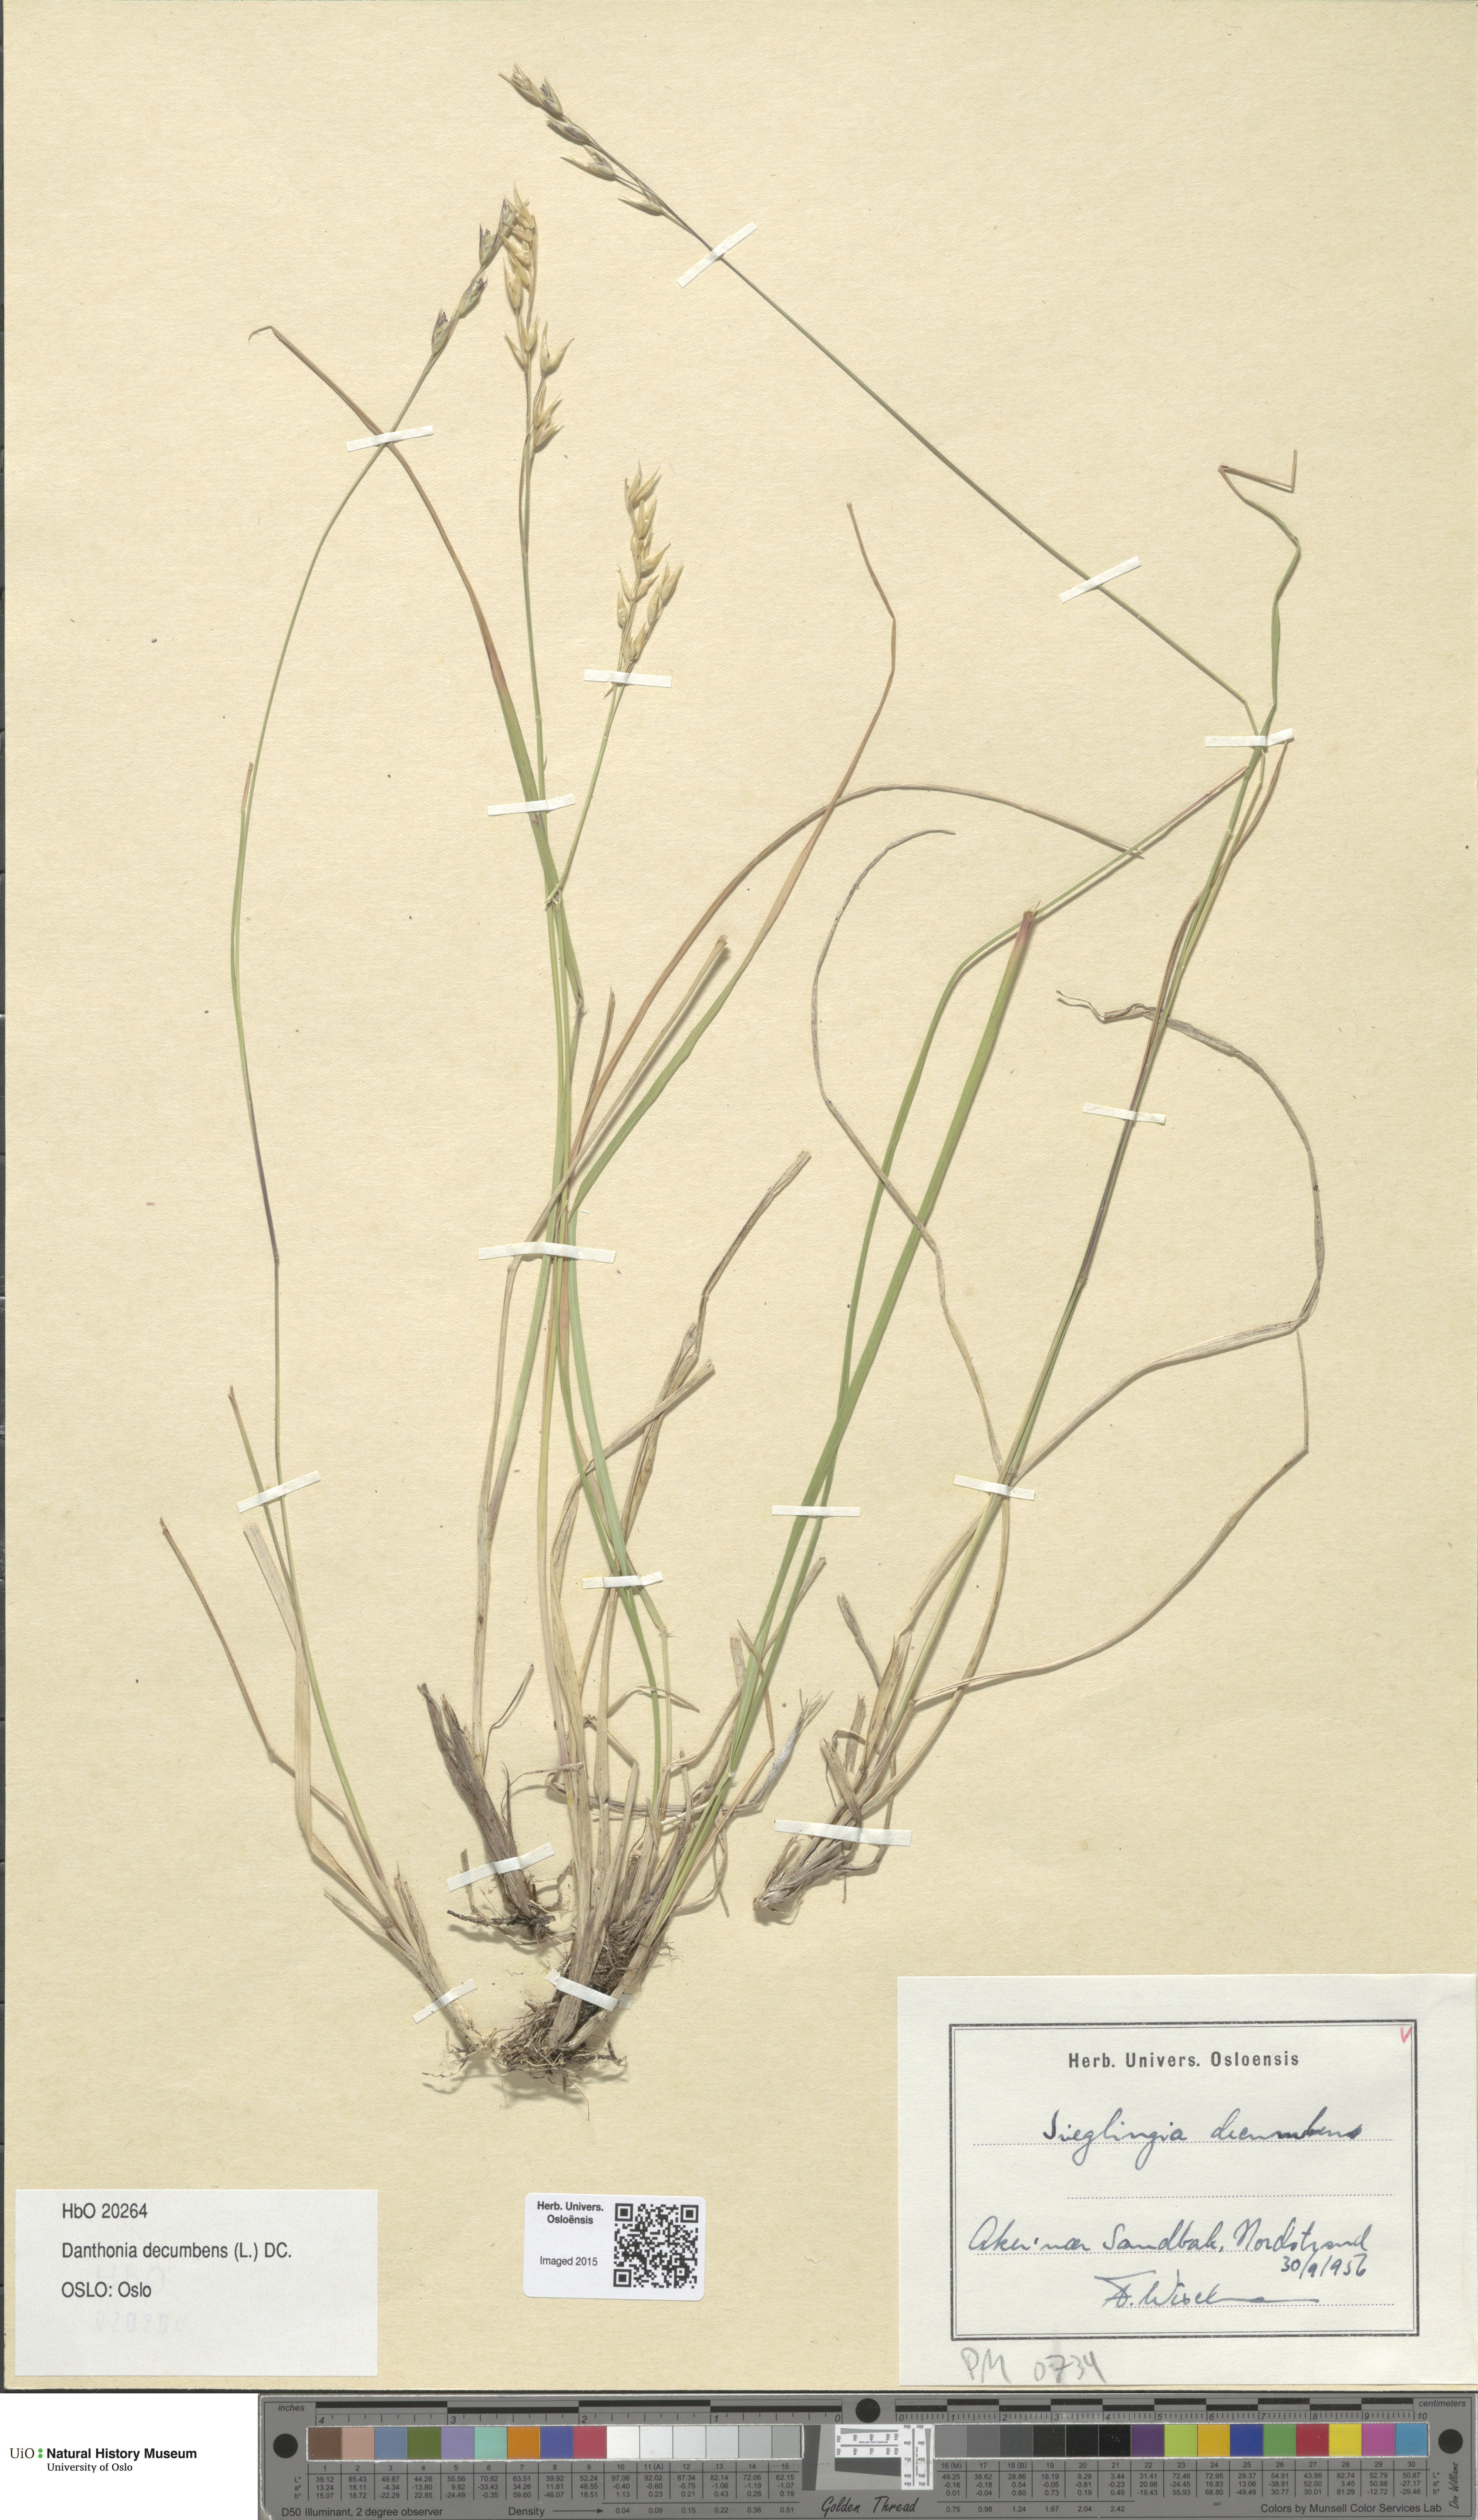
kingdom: Plantae
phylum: Tracheophyta
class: Liliopsida
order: Poales
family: Poaceae
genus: Danthonia
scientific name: Danthonia decumbens
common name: Common heathgrass
